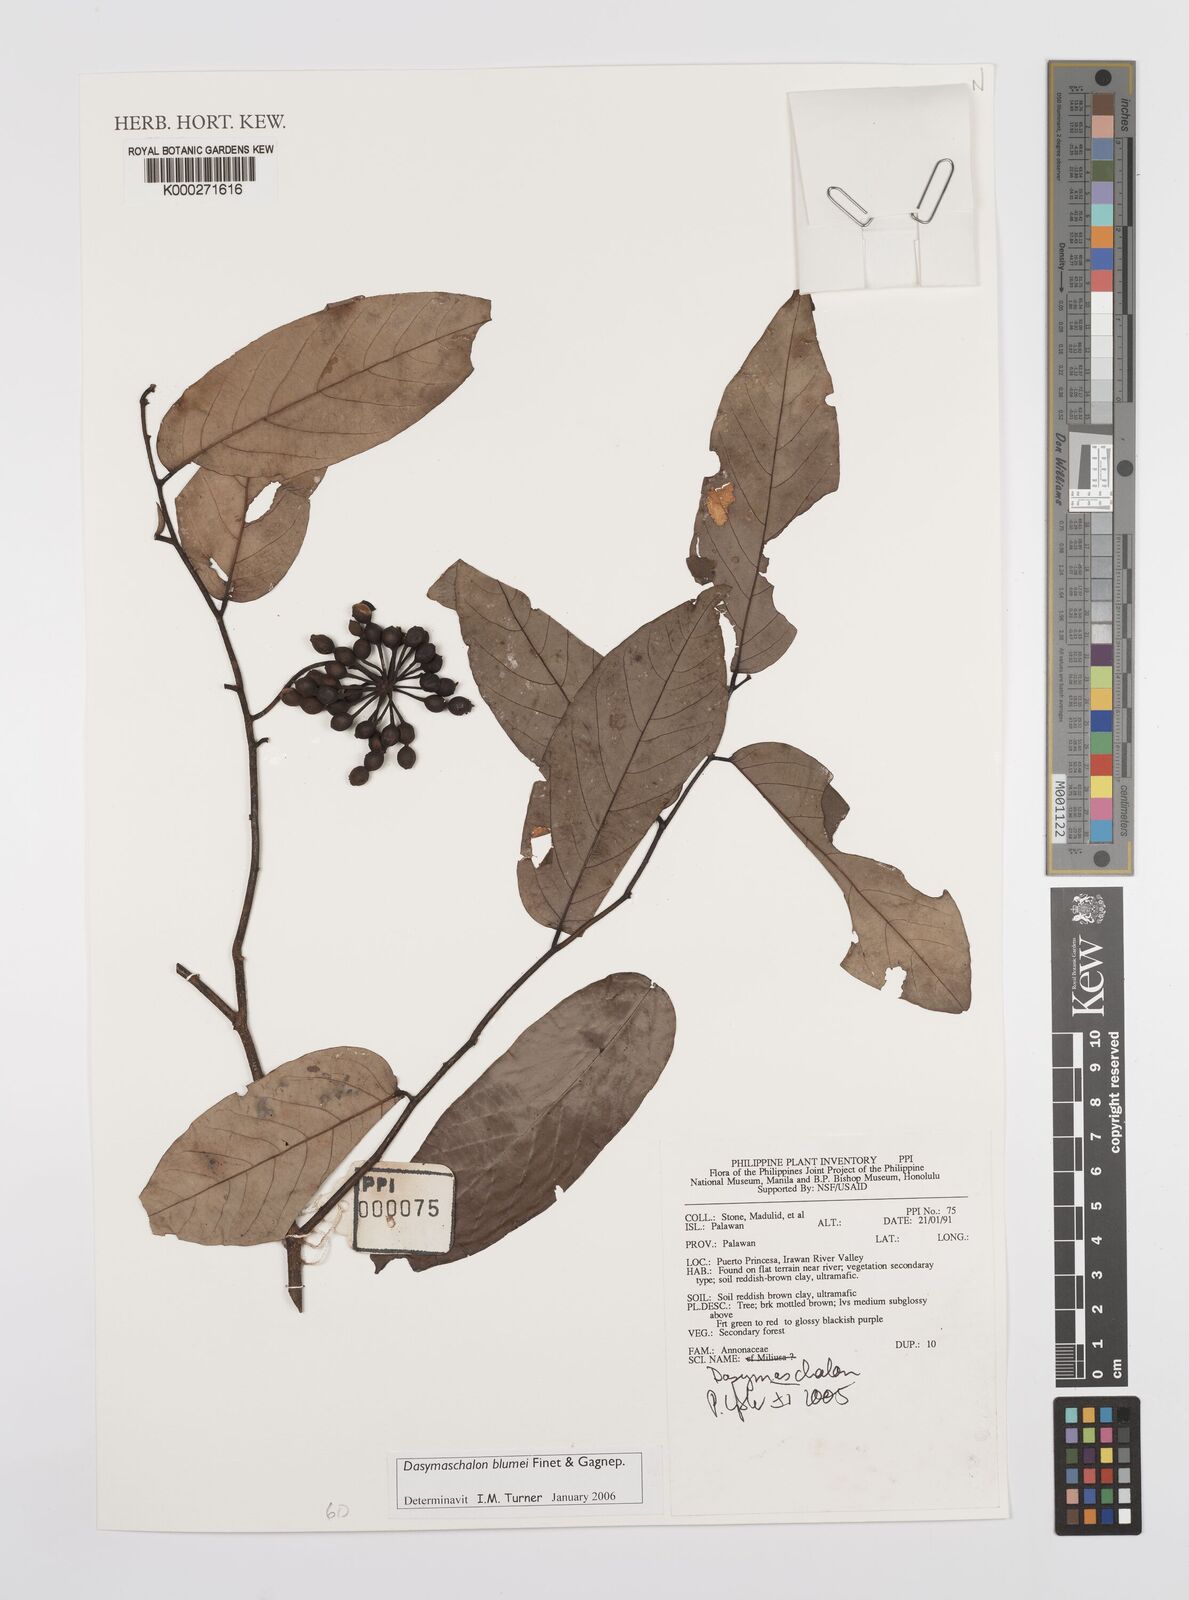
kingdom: Plantae
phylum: Tracheophyta
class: Magnoliopsida
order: Magnoliales
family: Annonaceae
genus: Dasymaschalon
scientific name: Dasymaschalon dasymaschalum
